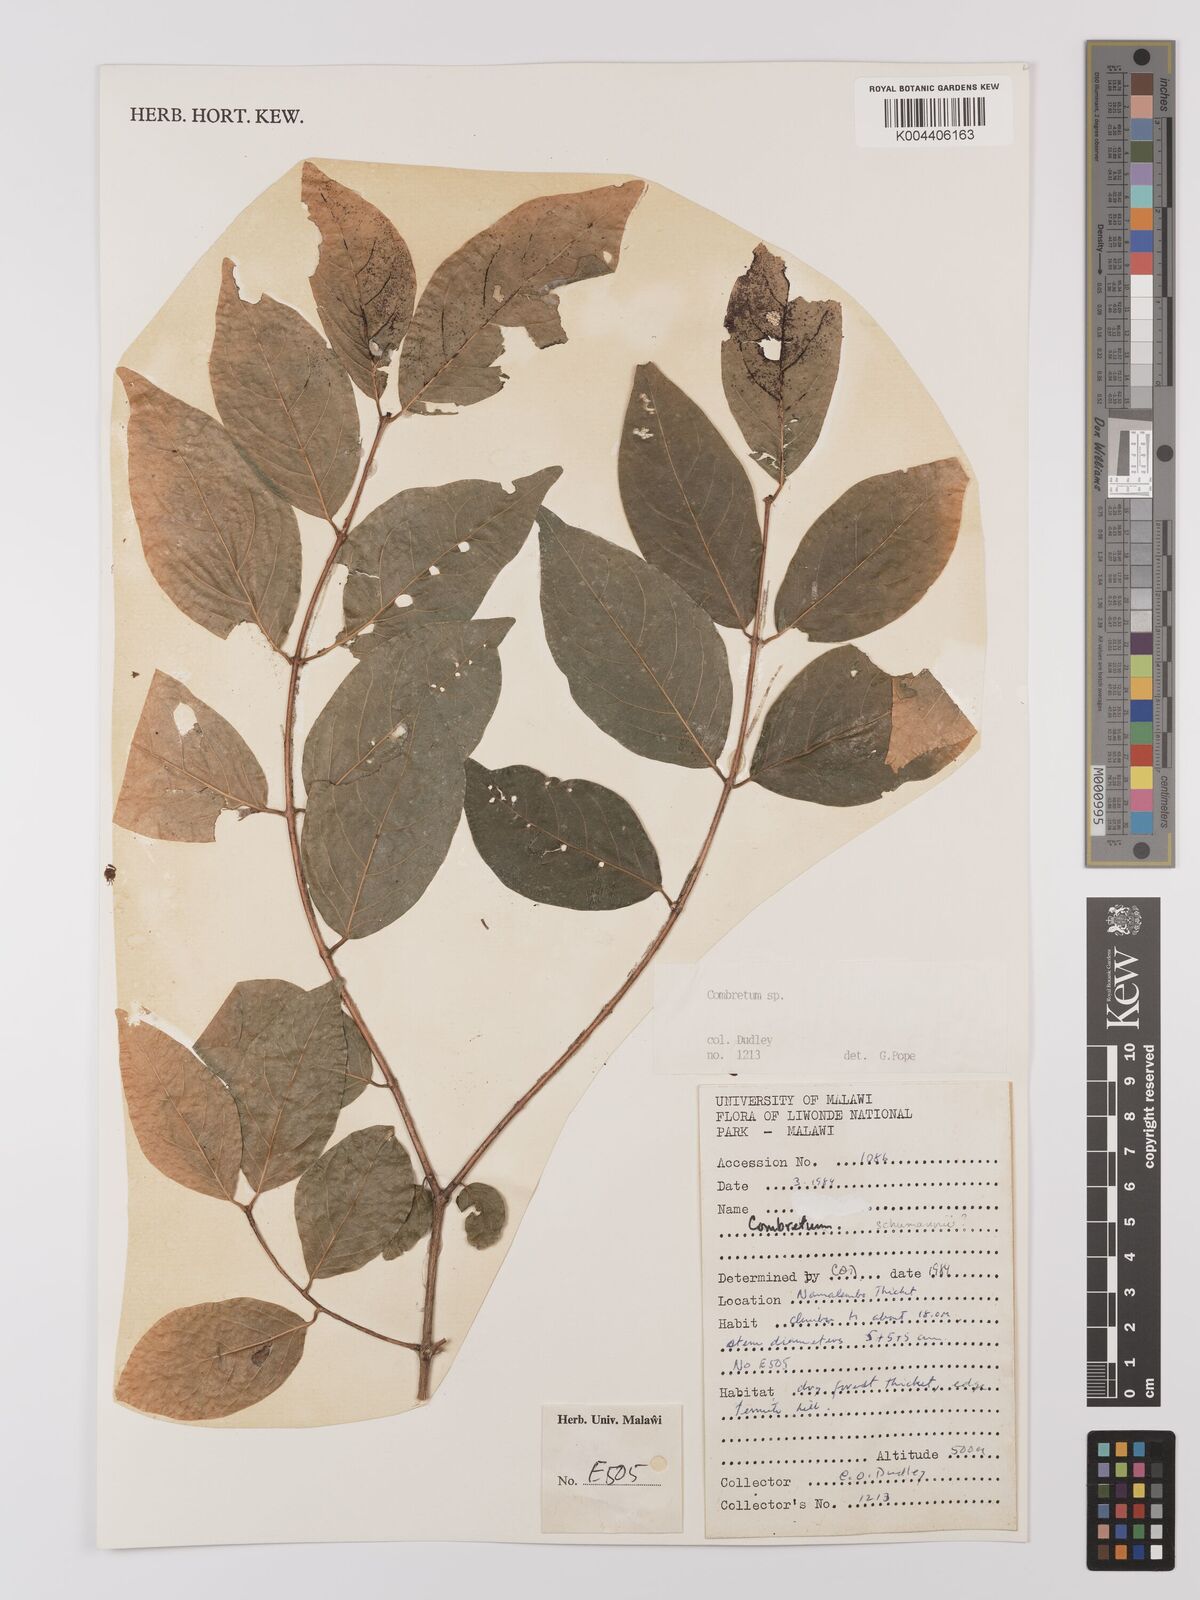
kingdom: Plantae
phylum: Tracheophyta
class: Magnoliopsida
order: Myrtales
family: Combretaceae
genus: Combretum
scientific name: Combretum
